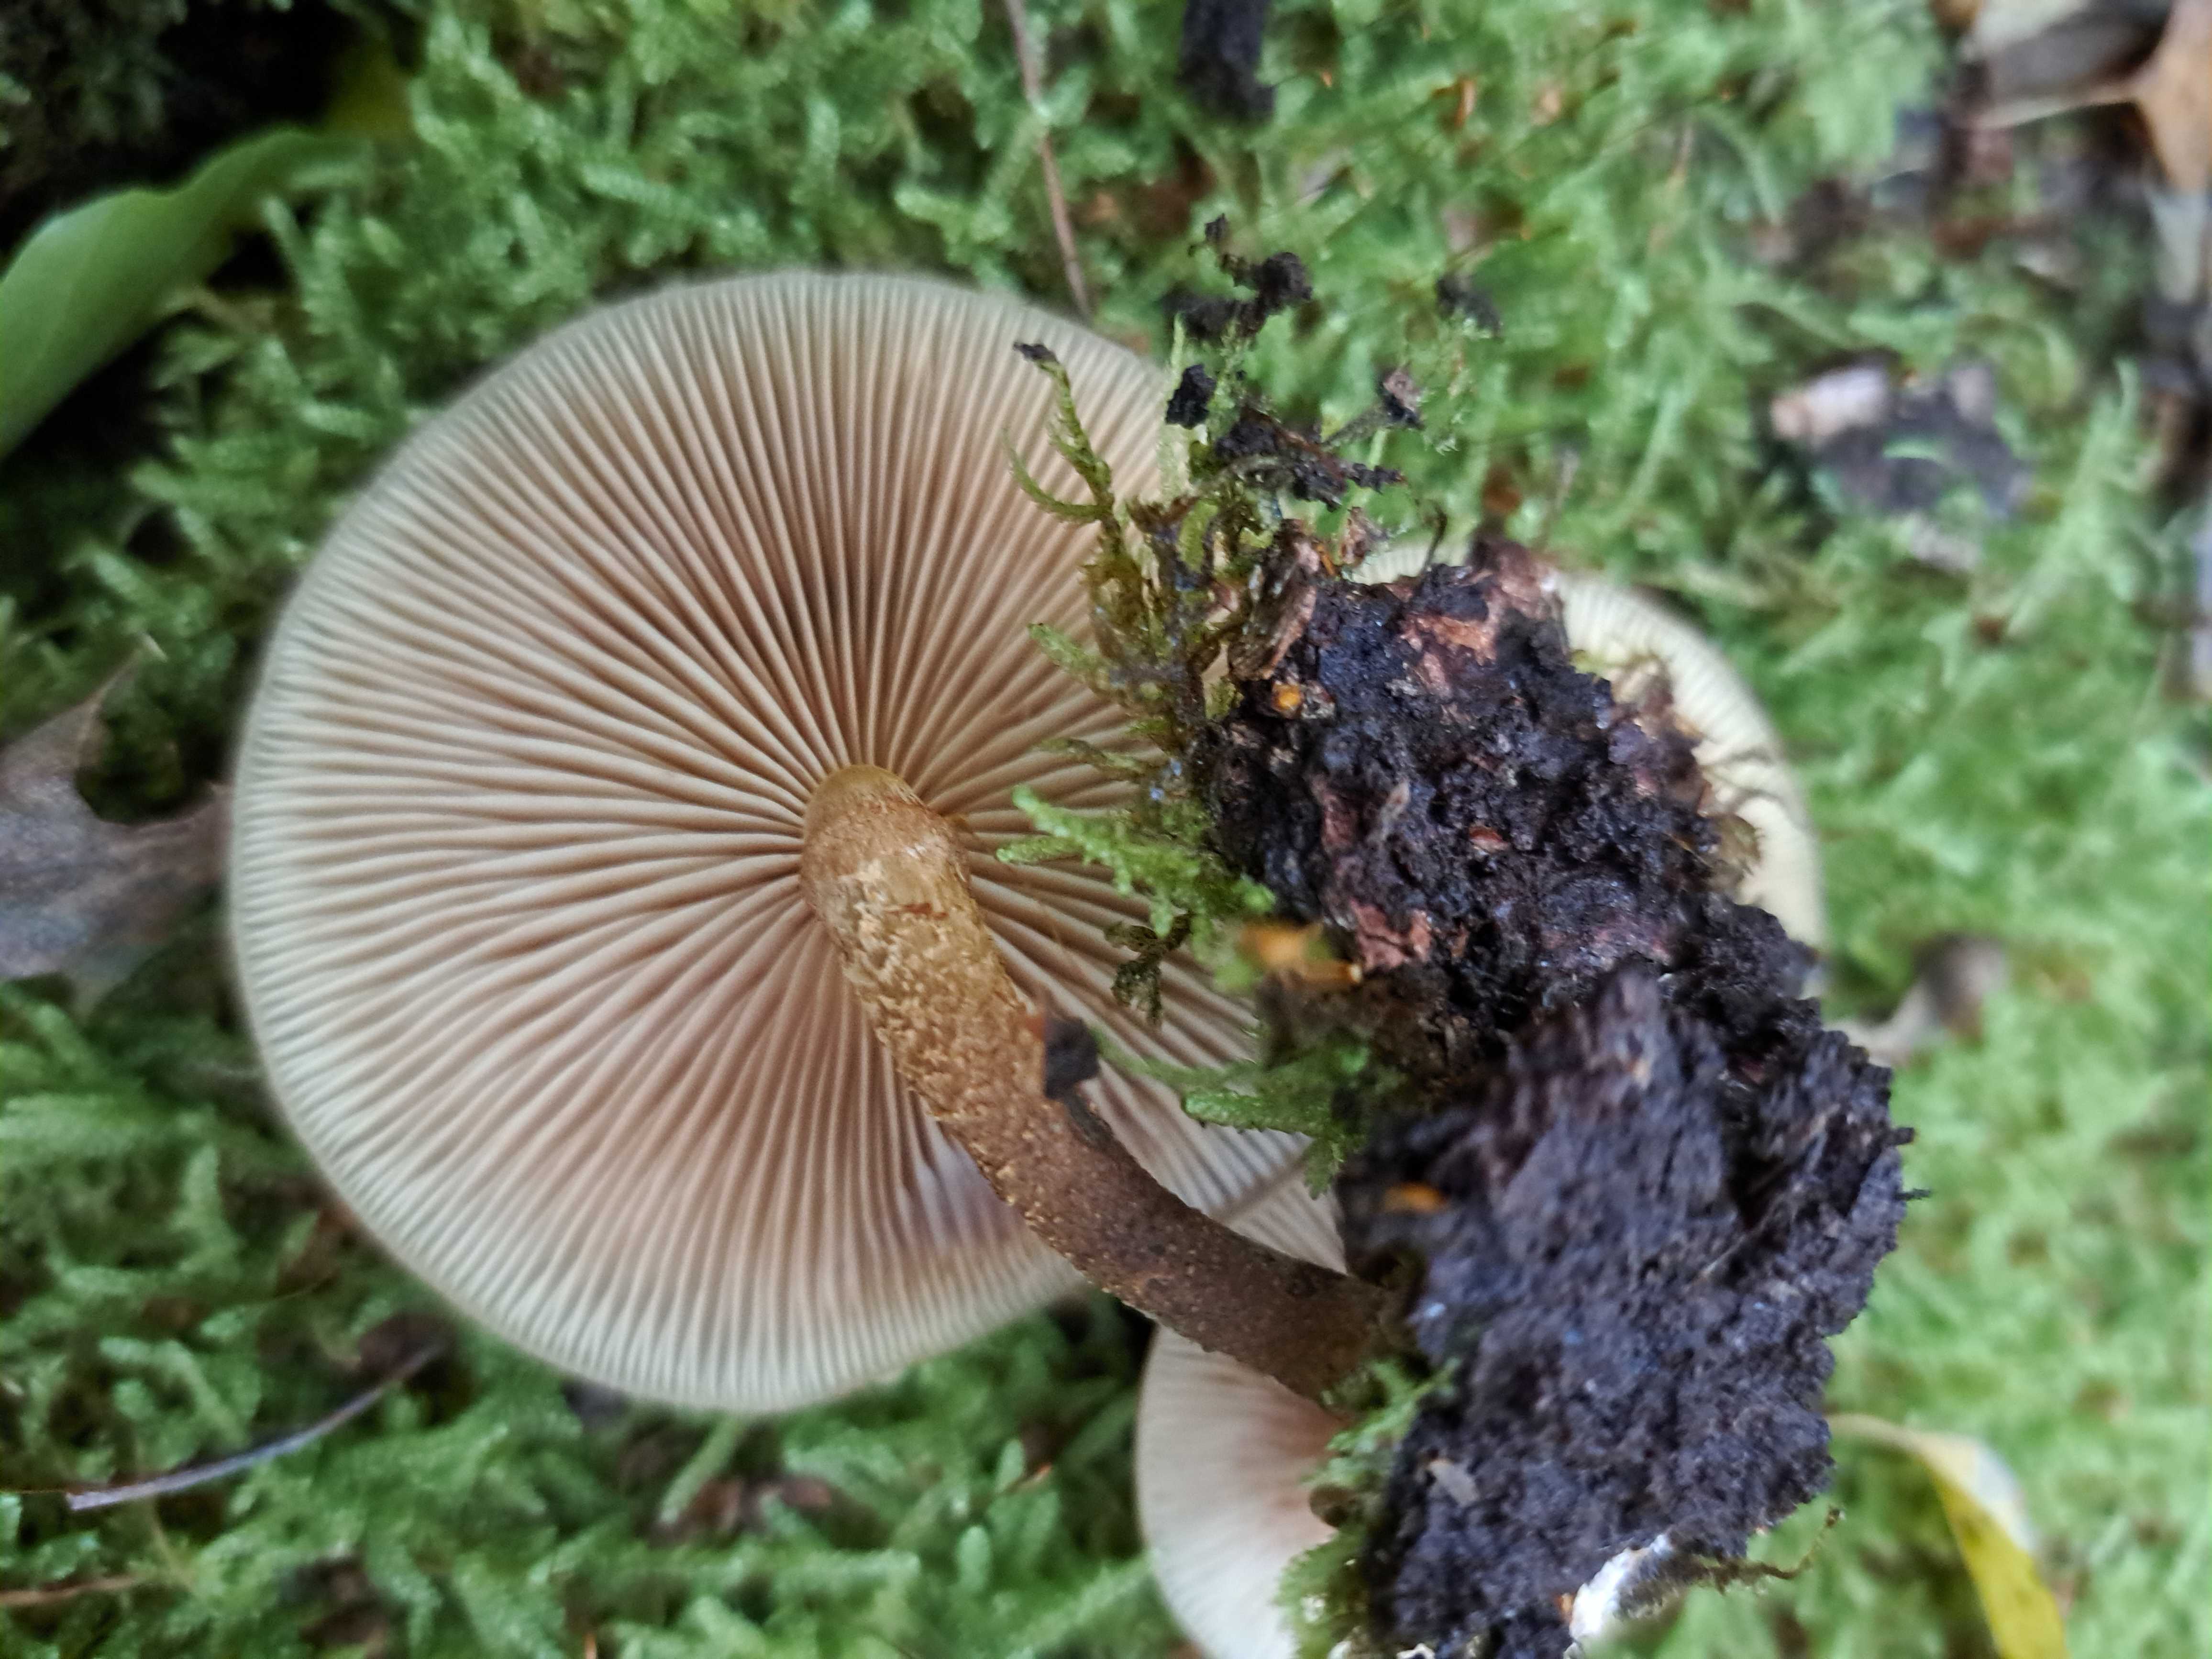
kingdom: Fungi
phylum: Basidiomycota
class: Agaricomycetes
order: Agaricales
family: Strophariaceae
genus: Kuehneromyces
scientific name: Kuehneromyces mutabilis
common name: foranderlig skælhat
